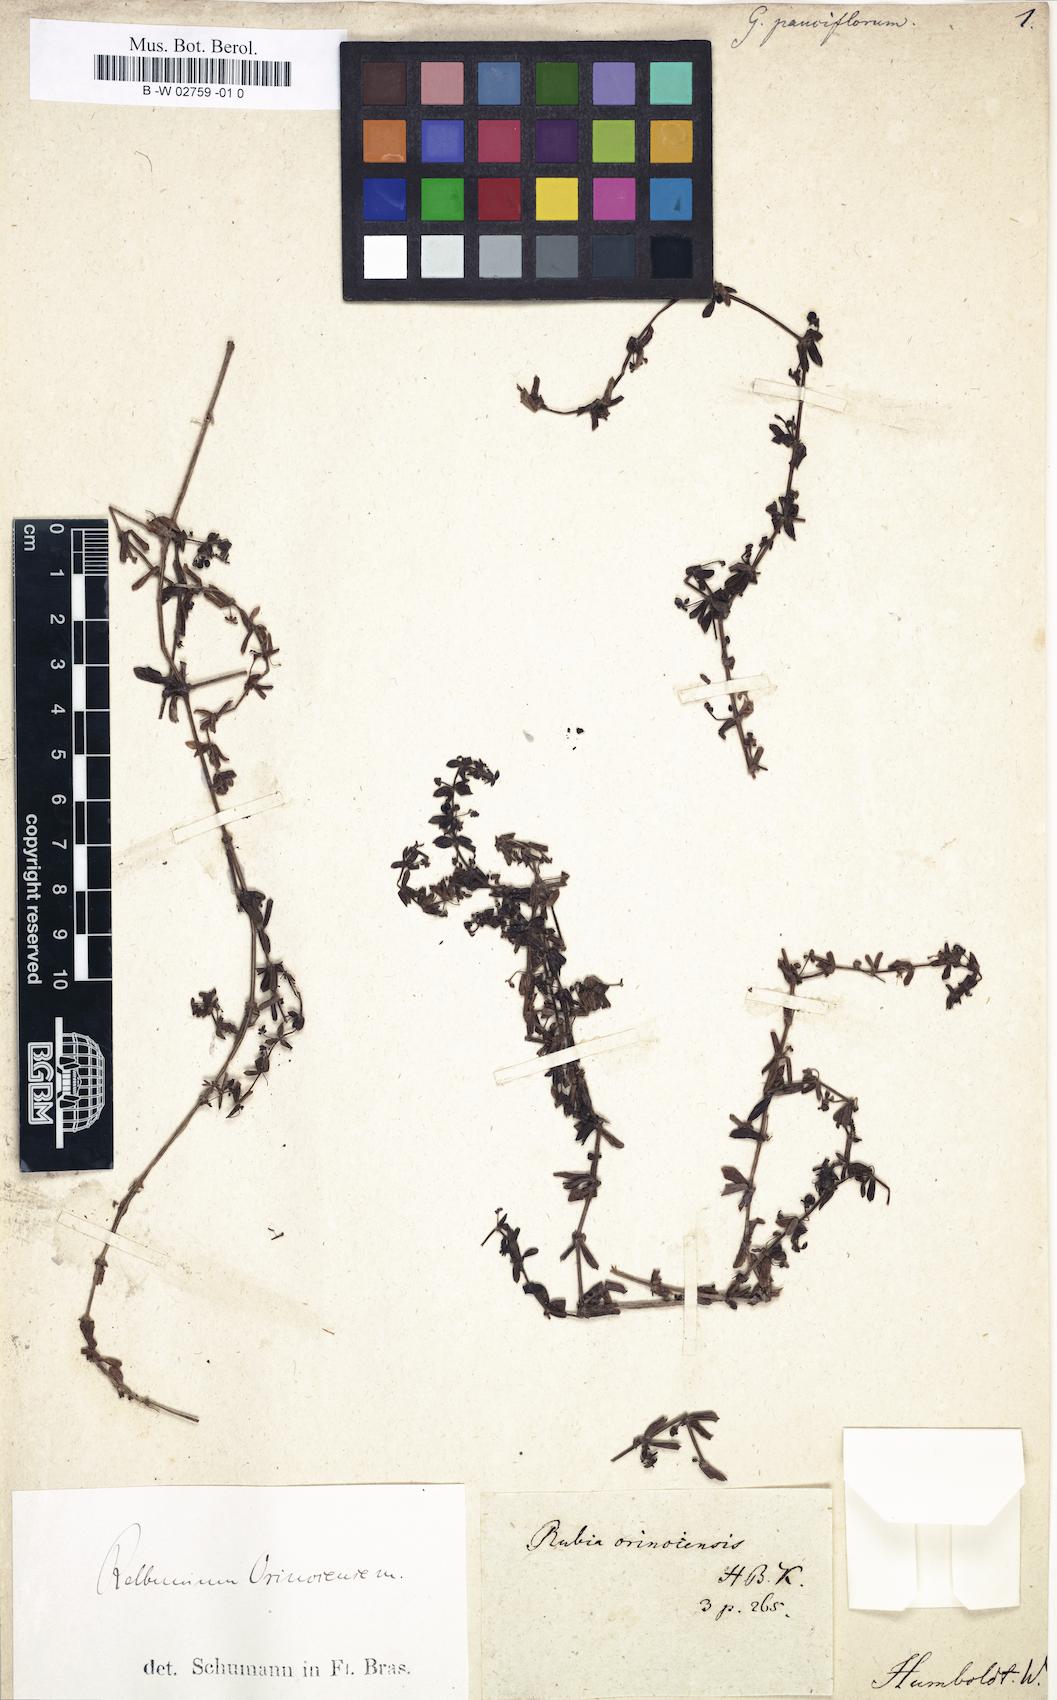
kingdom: Plantae
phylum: Tracheophyta
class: Magnoliopsida
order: Gentianales
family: Rubiaceae
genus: Galium
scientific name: Galium
